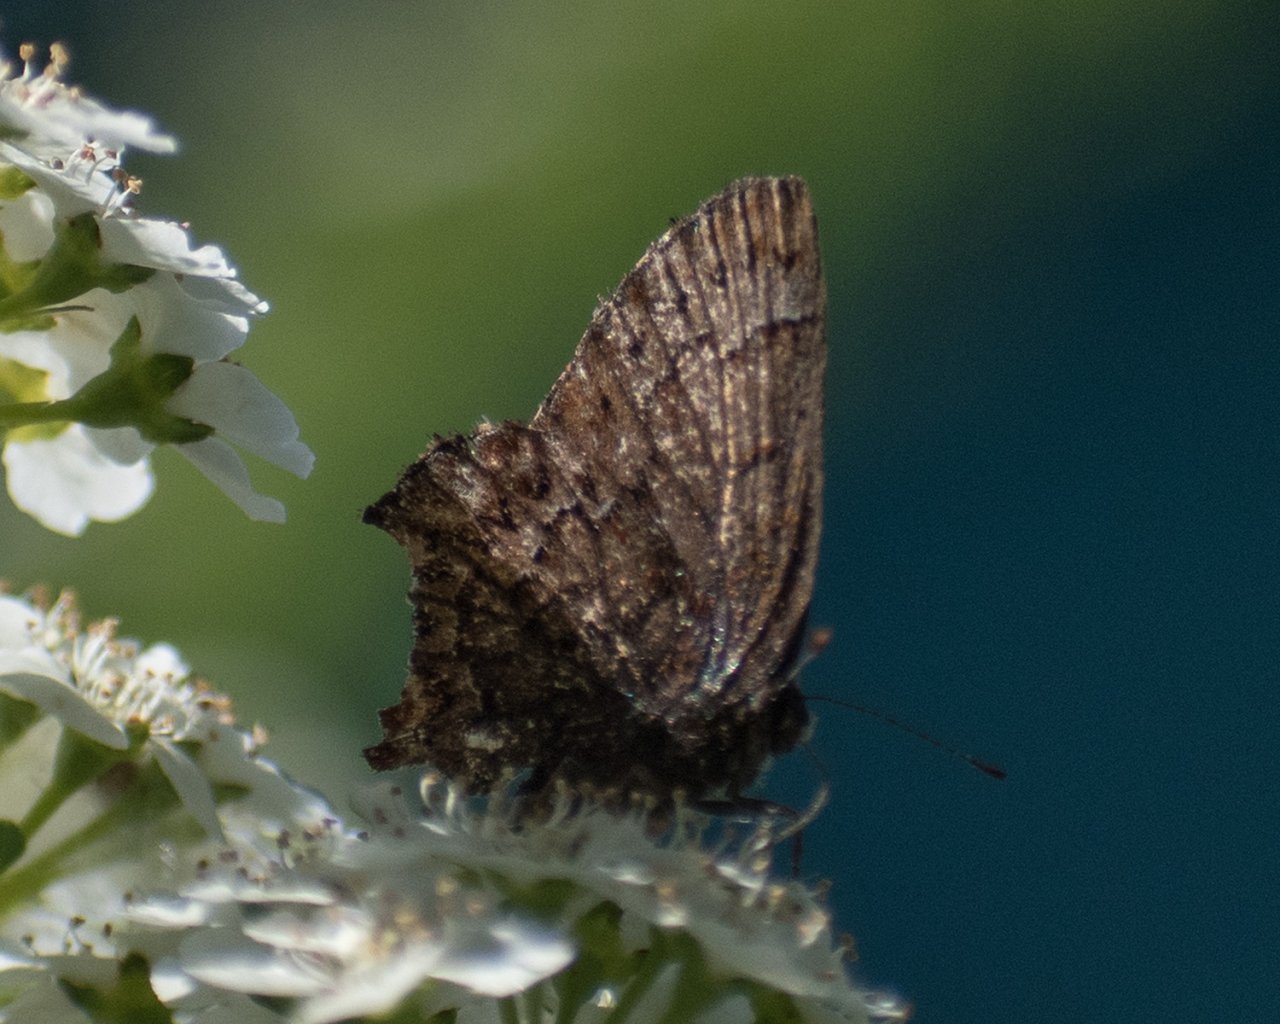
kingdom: Animalia
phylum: Arthropoda
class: Insecta
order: Lepidoptera
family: Lycaenidae
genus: Incisalia
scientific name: Incisalia eryphon
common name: Western Pine Elfin
